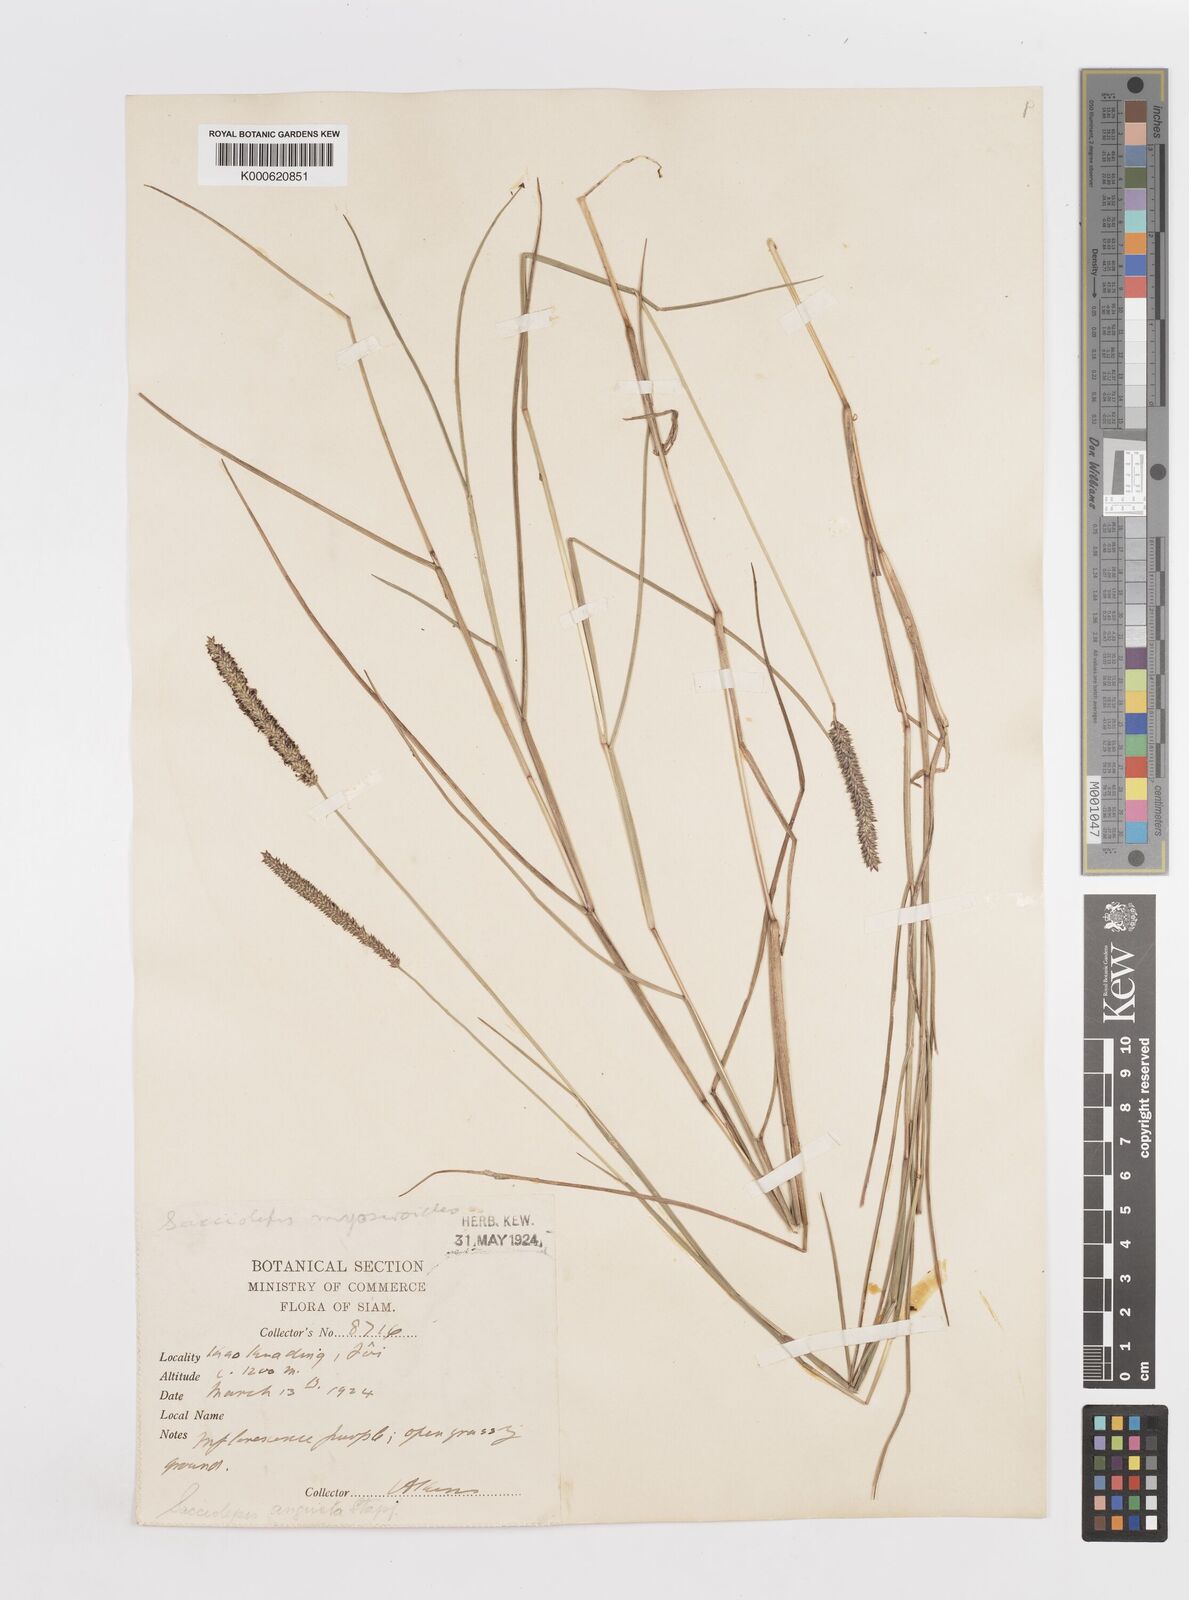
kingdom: Plantae
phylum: Tracheophyta
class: Liliopsida
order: Poales
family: Poaceae
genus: Sacciolepis
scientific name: Sacciolepis indica
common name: Glenwoodgrass
